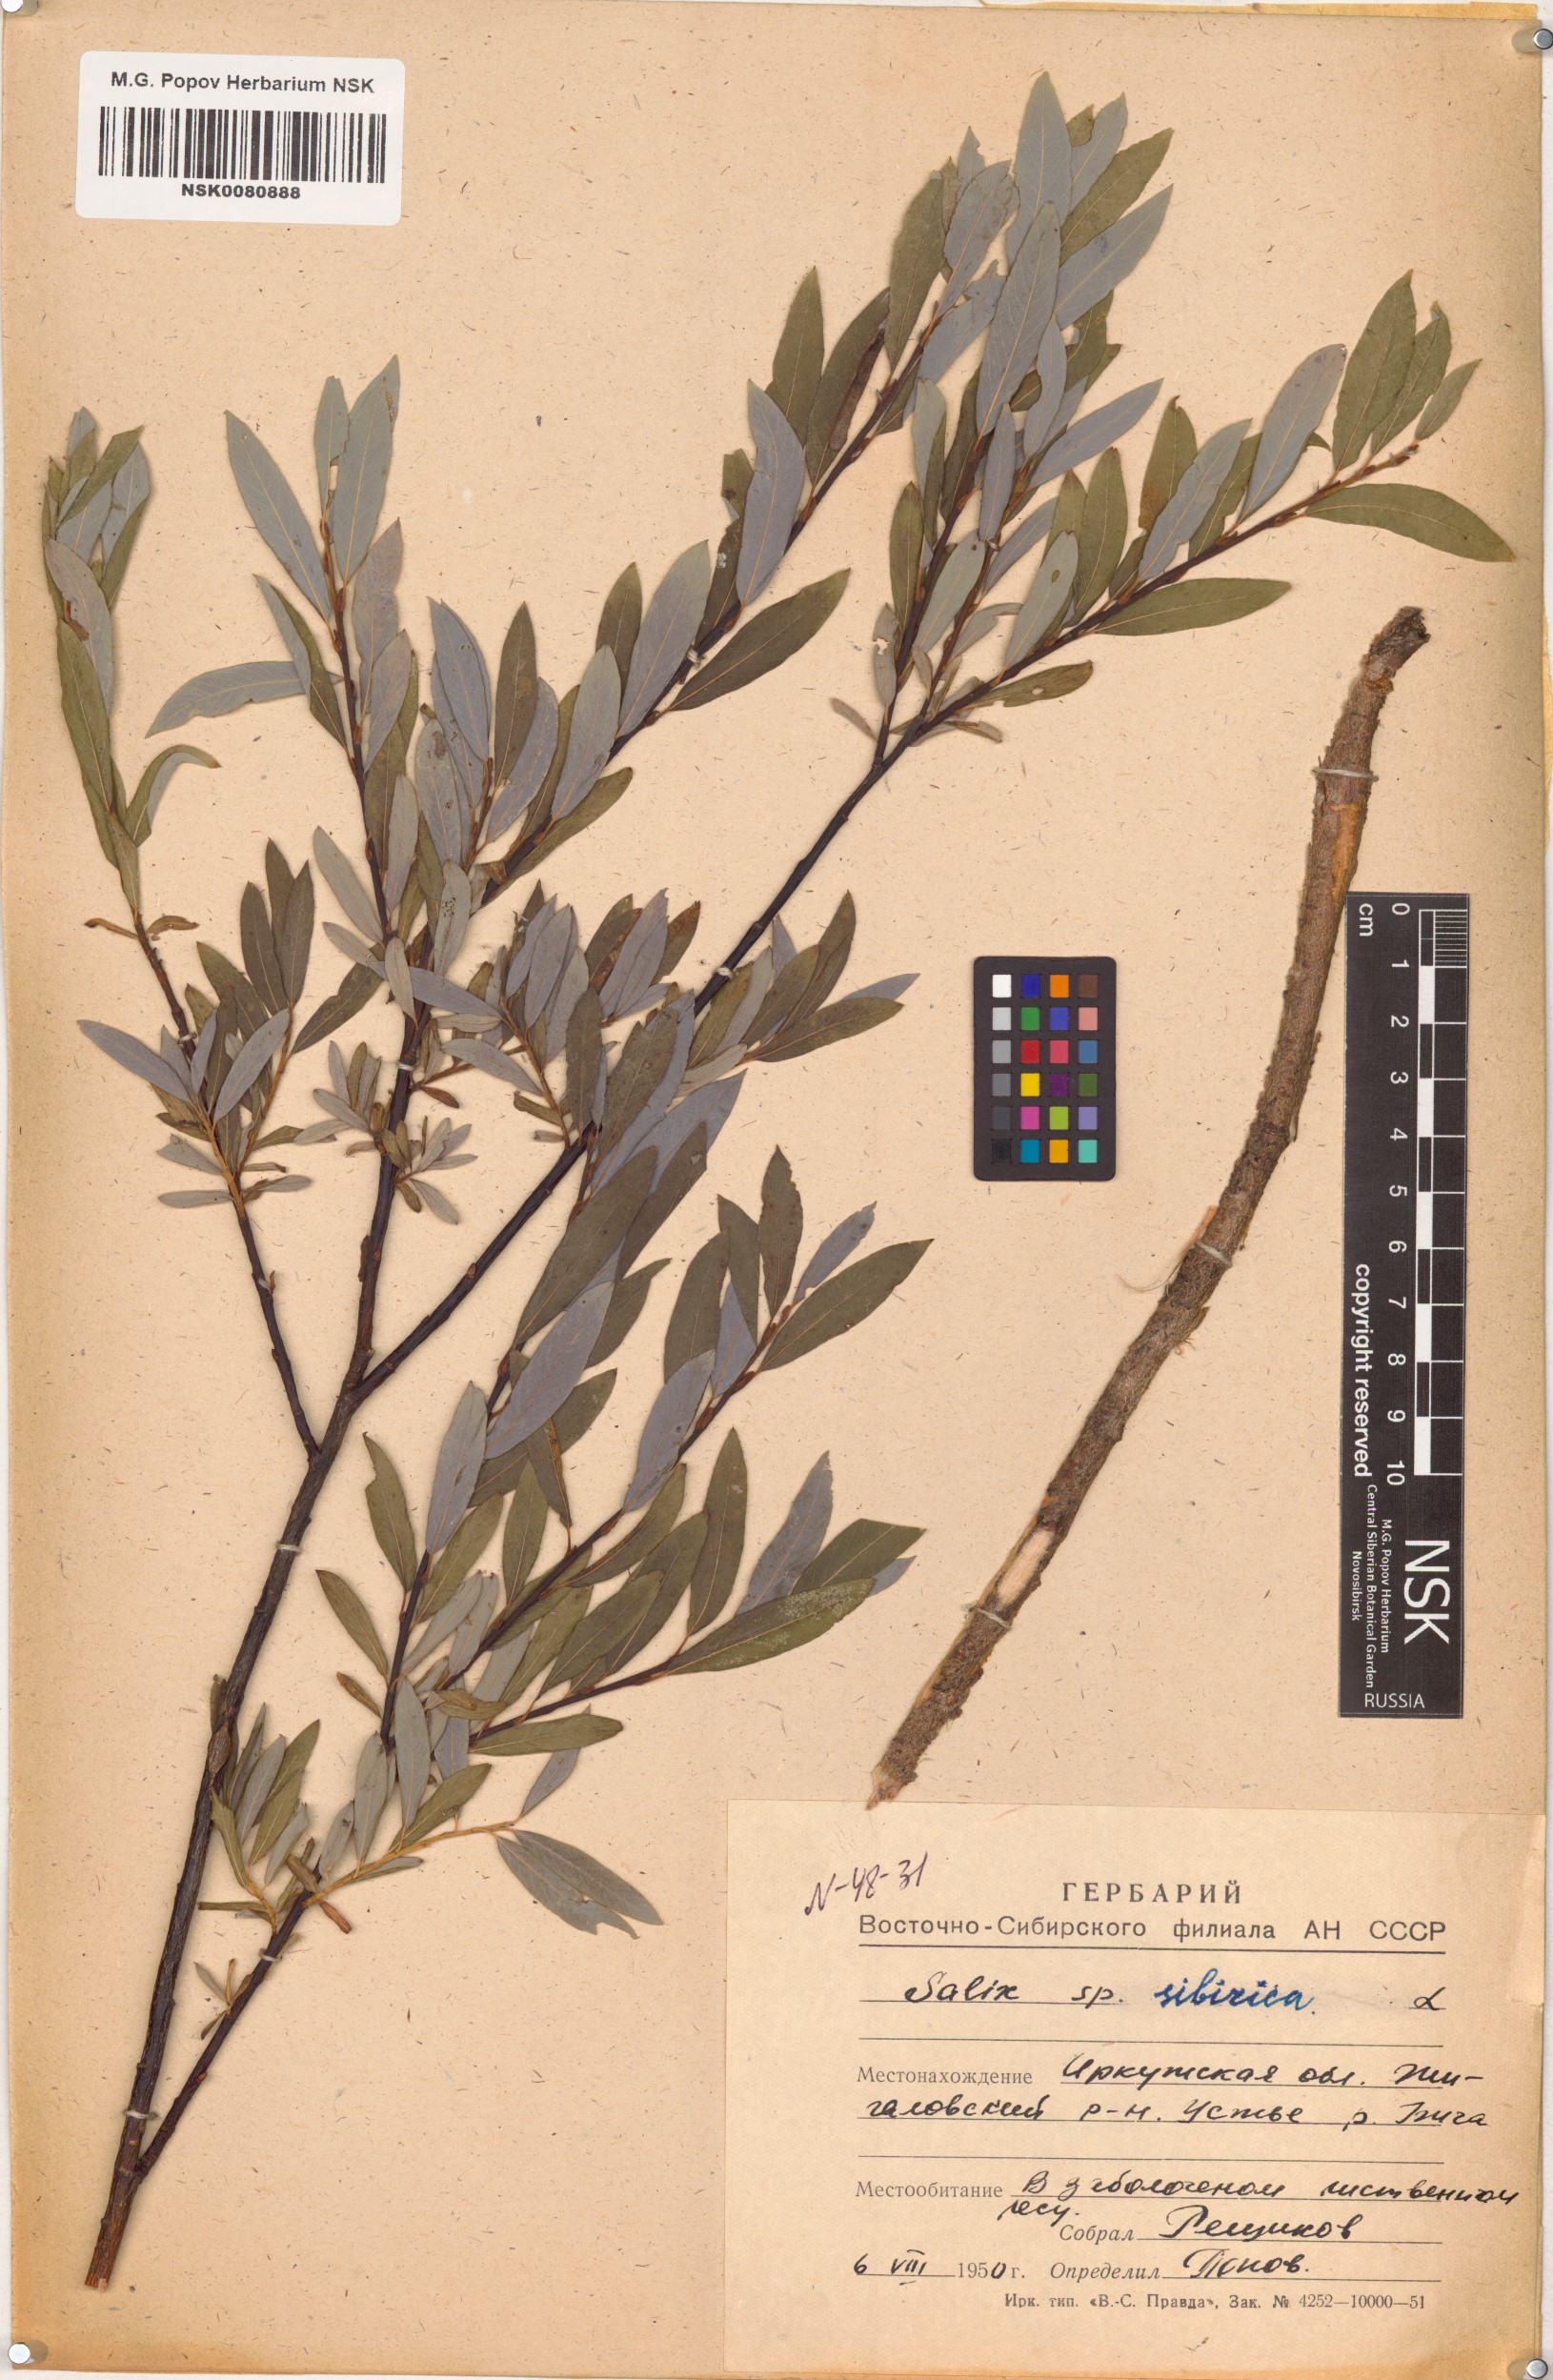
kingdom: Plantae
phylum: Tracheophyta
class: Magnoliopsida
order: Malpighiales
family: Salicaceae
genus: Salix
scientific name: Salix rosmarinifolia
